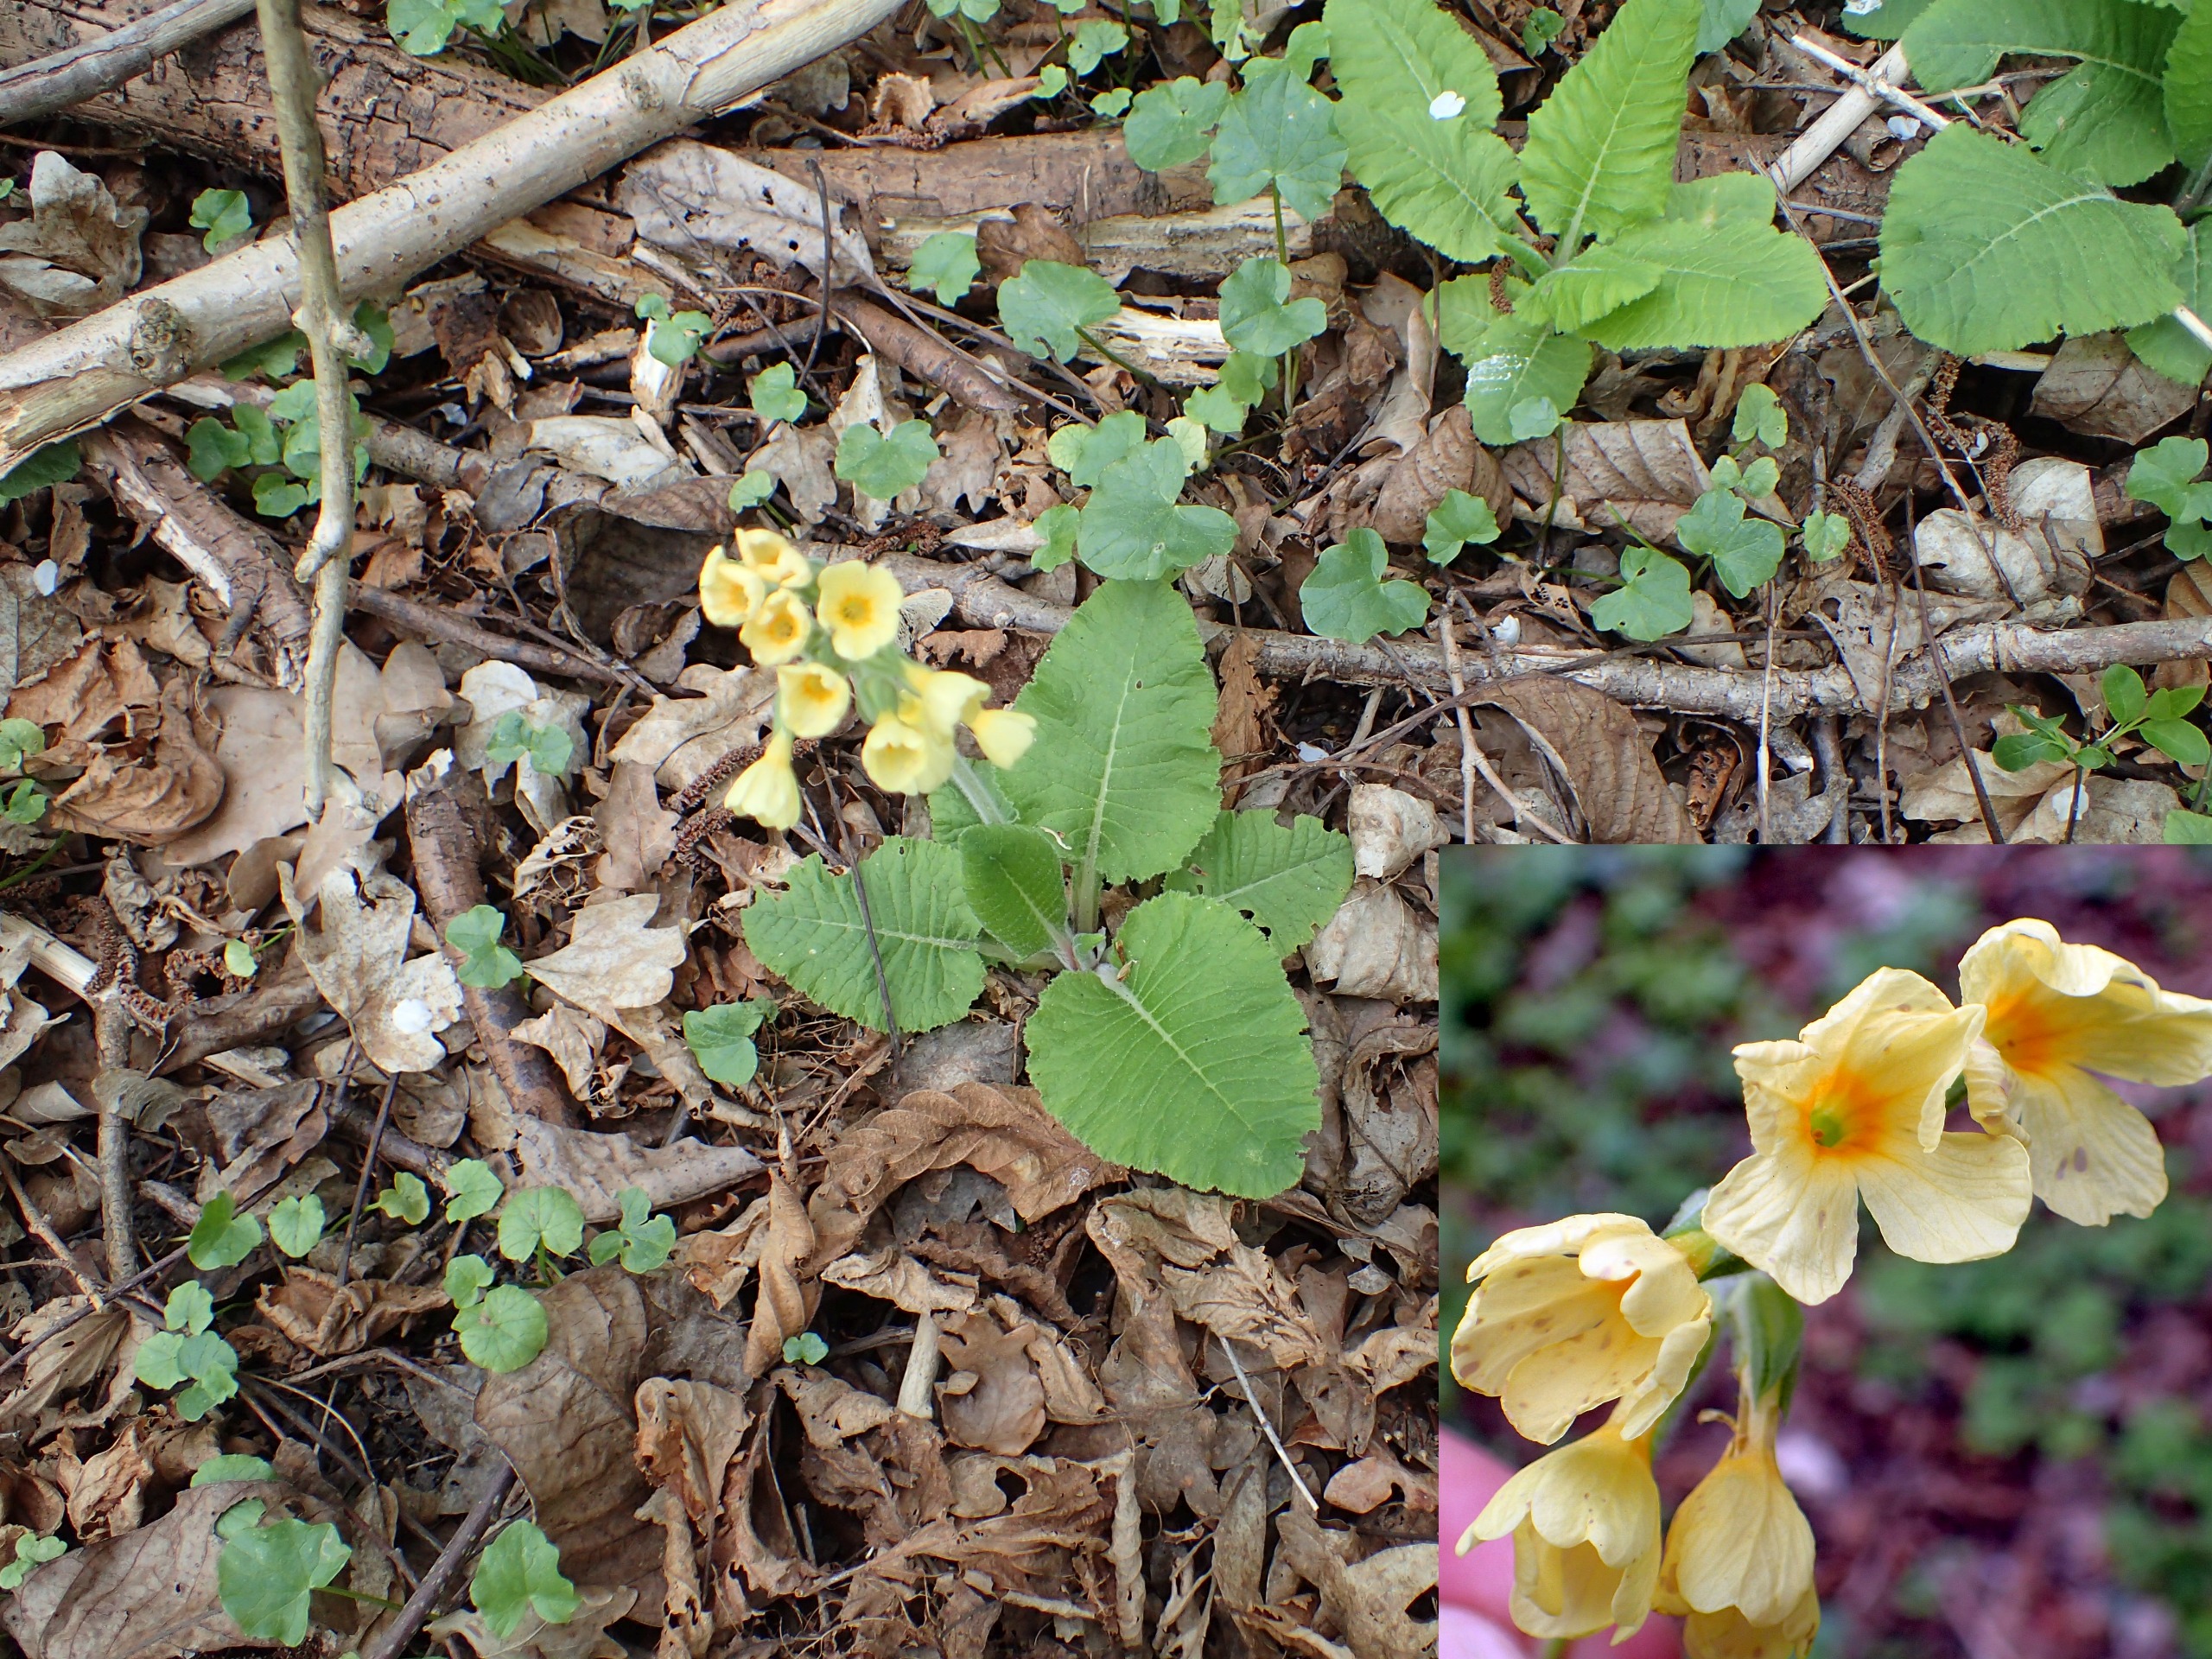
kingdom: Plantae
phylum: Tracheophyta
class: Magnoliopsida
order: Ericales
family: Primulaceae
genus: Primula
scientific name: Primula elatior
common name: Fladkravet kodriver
